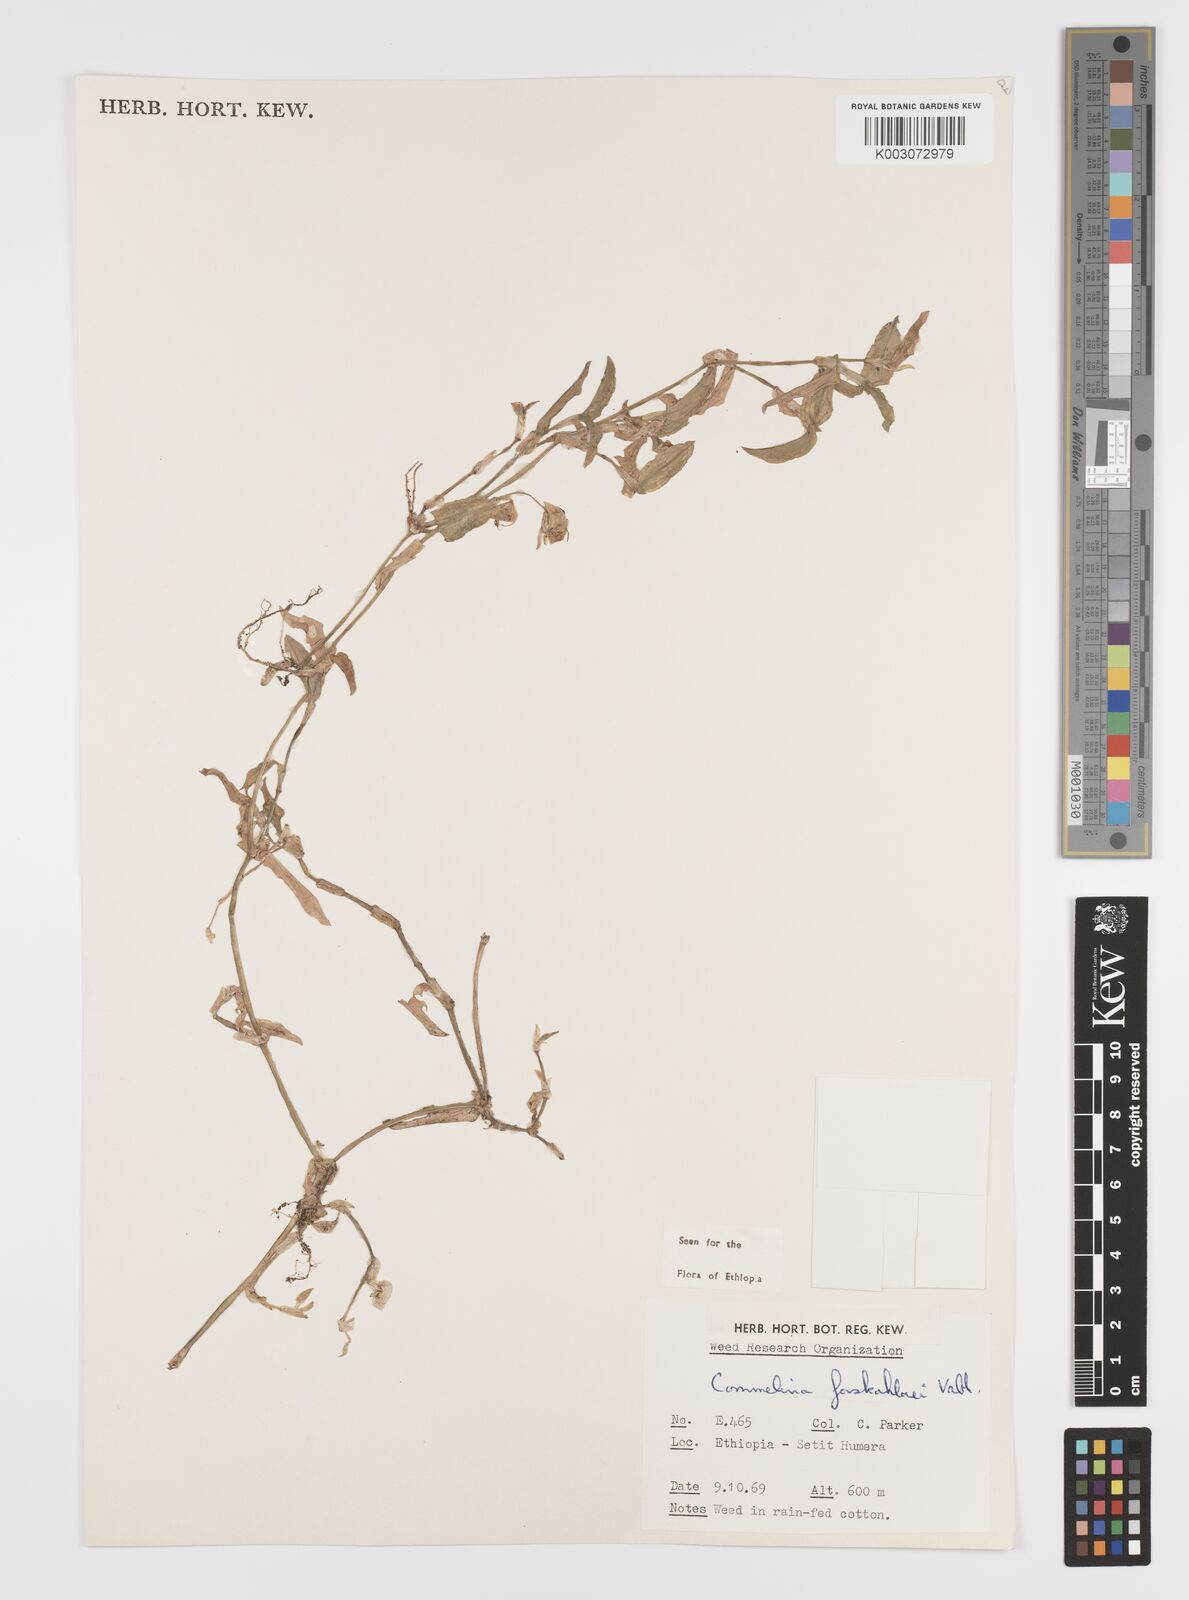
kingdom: Plantae
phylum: Tracheophyta
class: Liliopsida
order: Commelinales
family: Commelinaceae
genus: Commelina
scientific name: Commelina forskaolii
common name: Rat's ear
